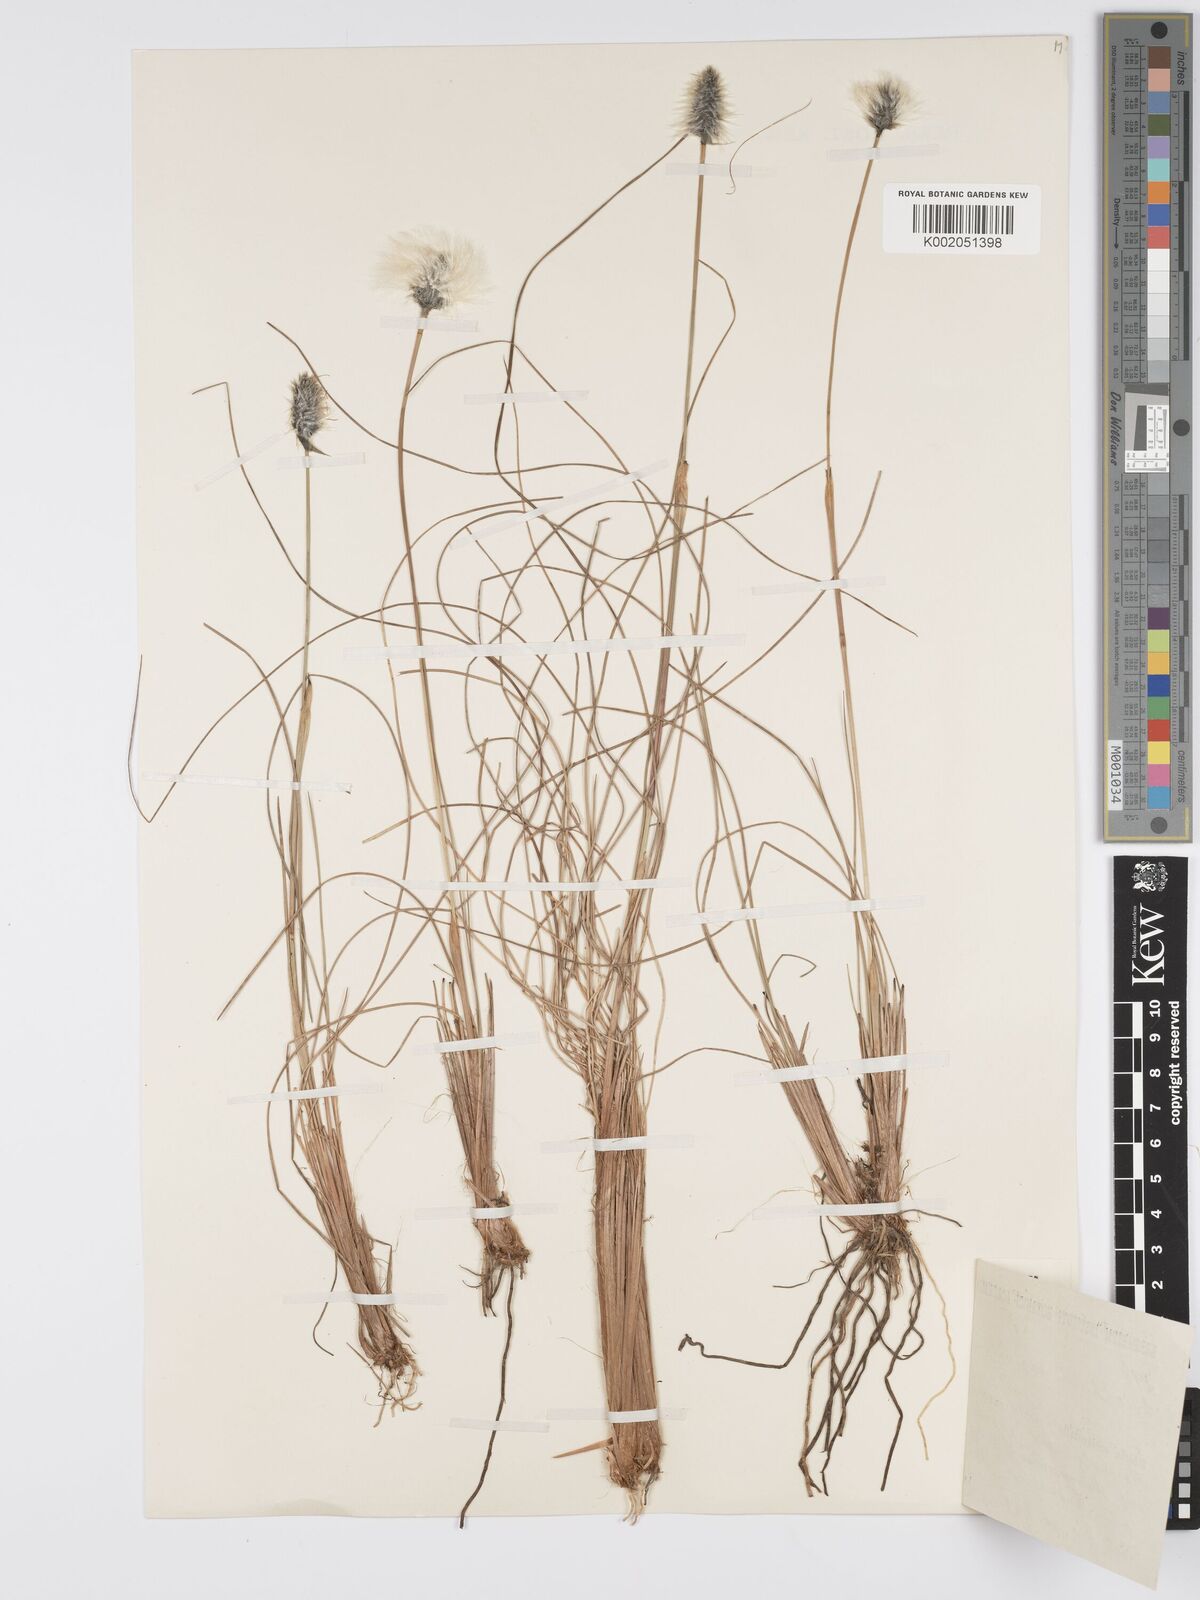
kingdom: Plantae
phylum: Tracheophyta
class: Liliopsida
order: Poales
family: Cyperaceae
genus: Eriophorum
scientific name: Eriophorum vaginatum
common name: Hare's-tail cottongrass
